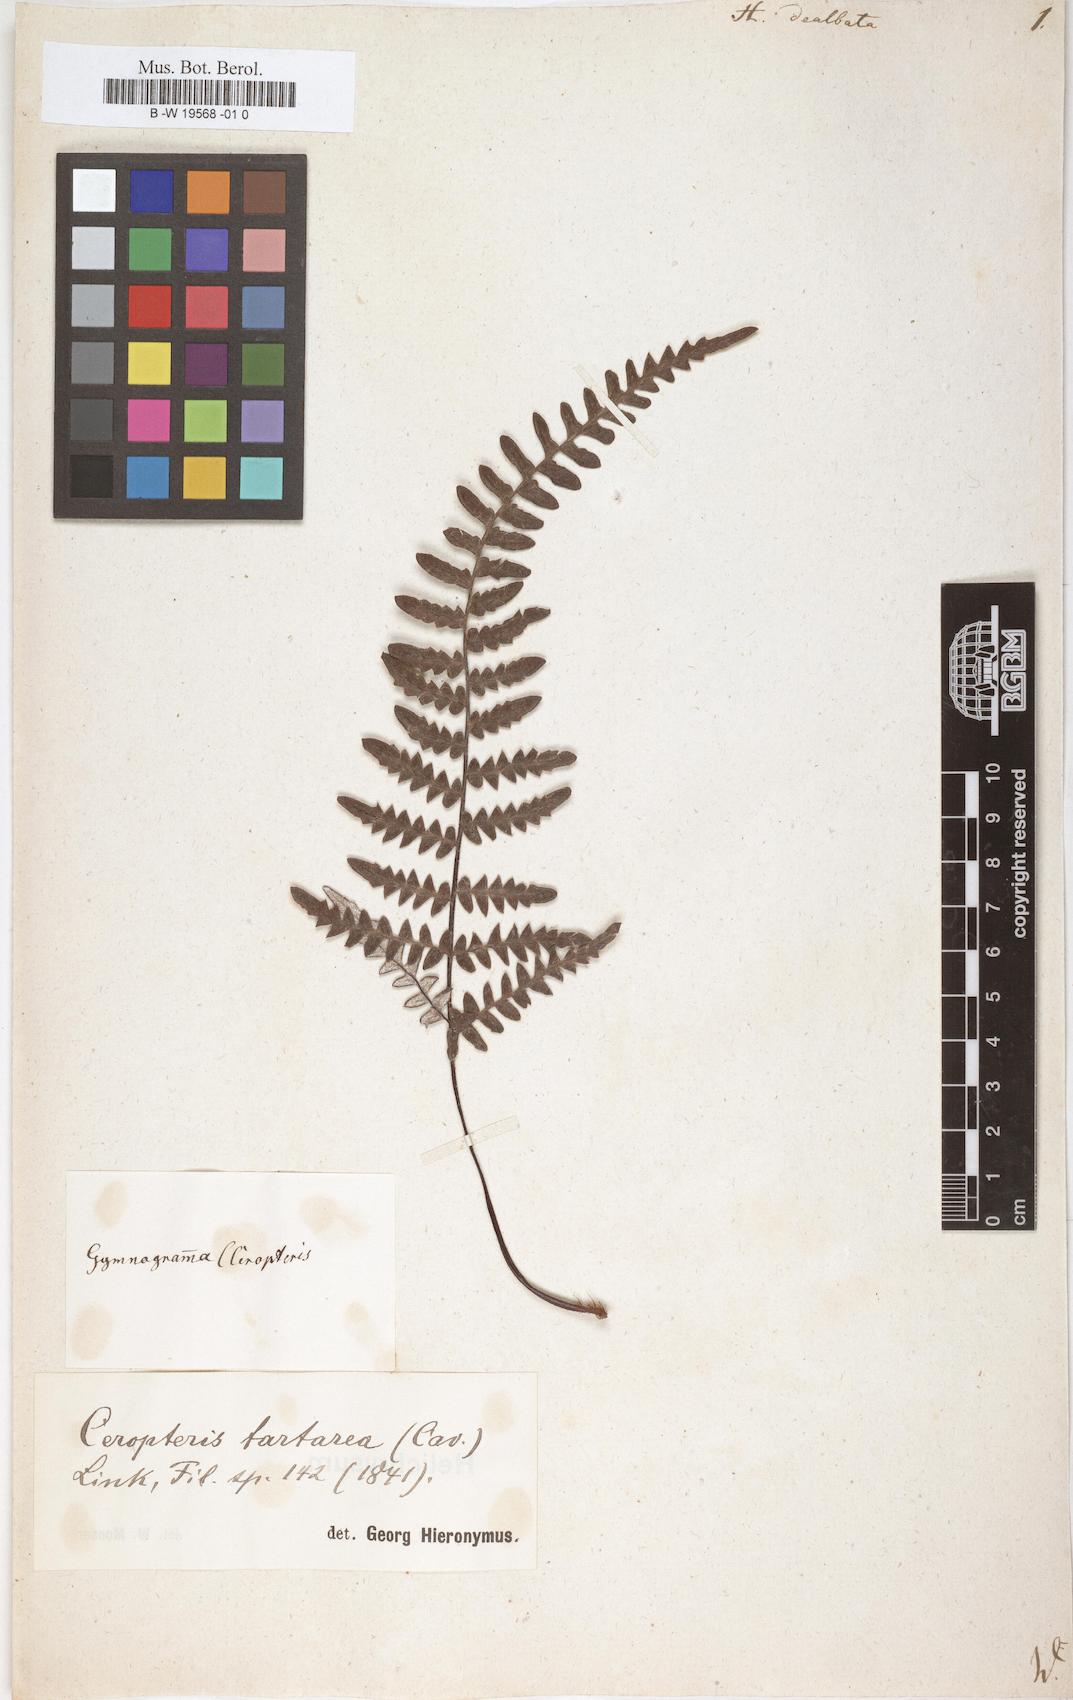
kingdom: Plantae
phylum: Tracheophyta
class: Polypodiopsida
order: Polypodiales
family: Pteridaceae
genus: Pityrogramma
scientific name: Pityrogramma ebenea
